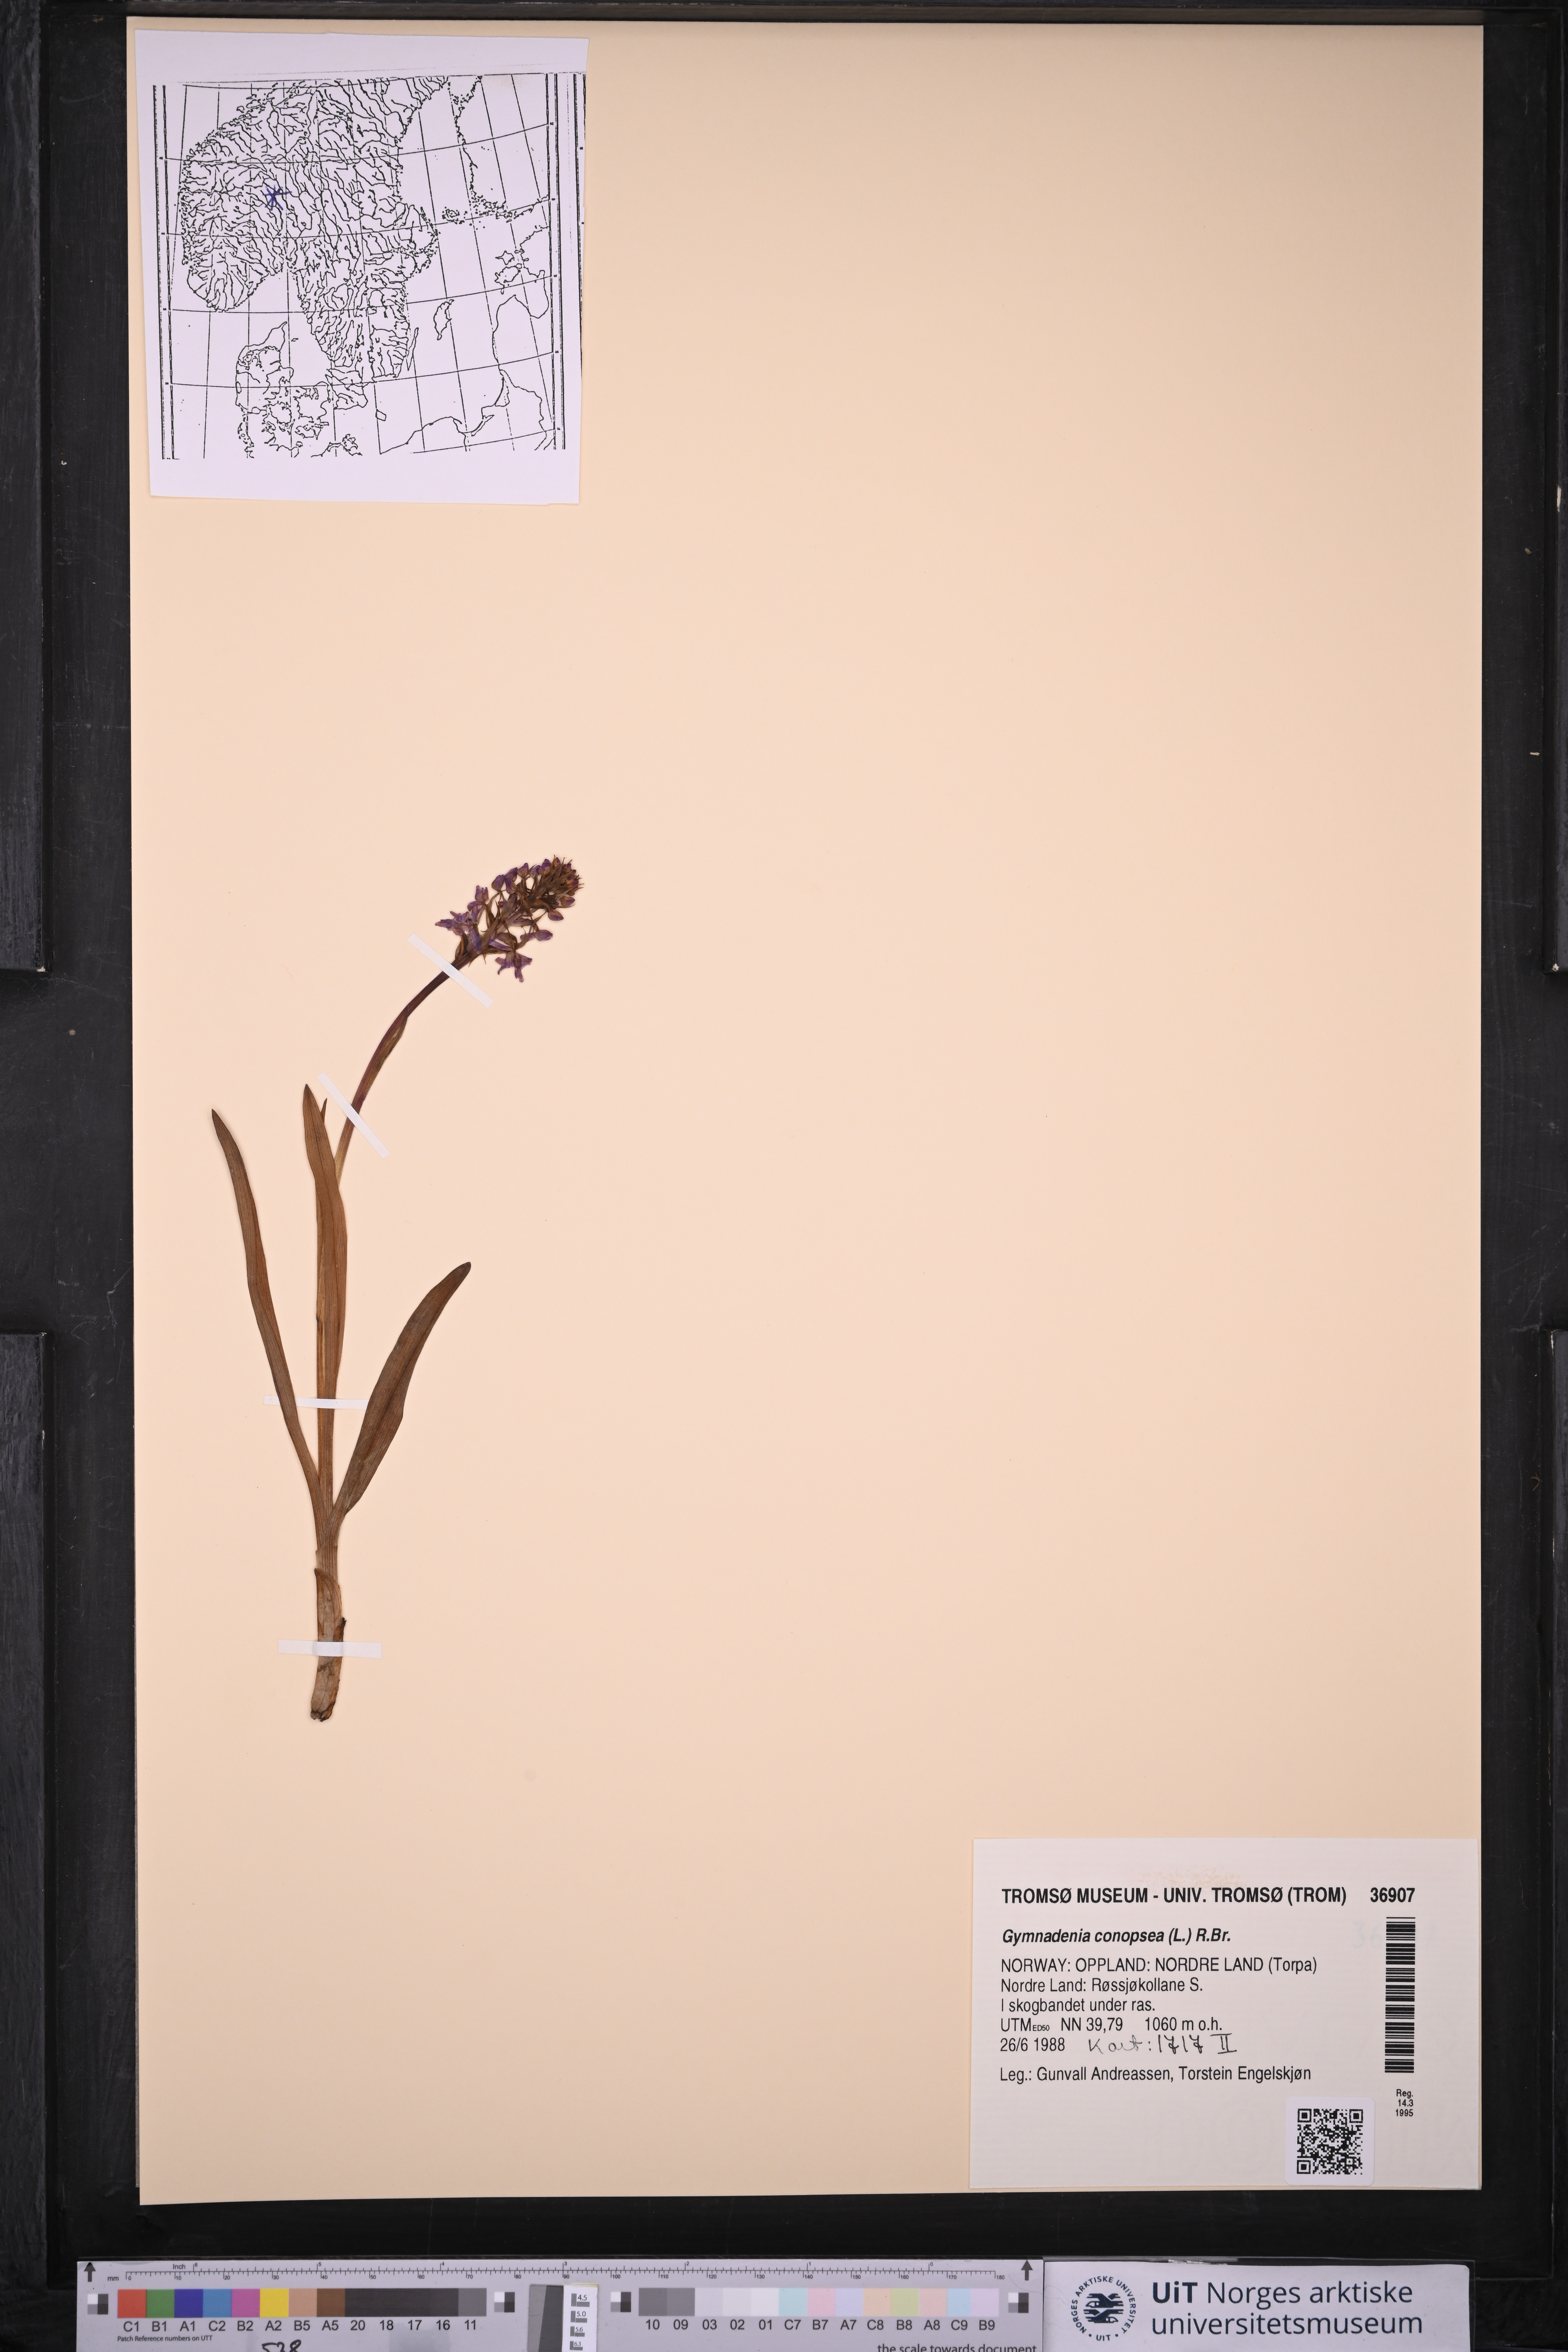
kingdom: Plantae
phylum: Tracheophyta
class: Liliopsida
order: Asparagales
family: Orchidaceae
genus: Gymnadenia
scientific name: Gymnadenia conopsea
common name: Fragrant orchid
